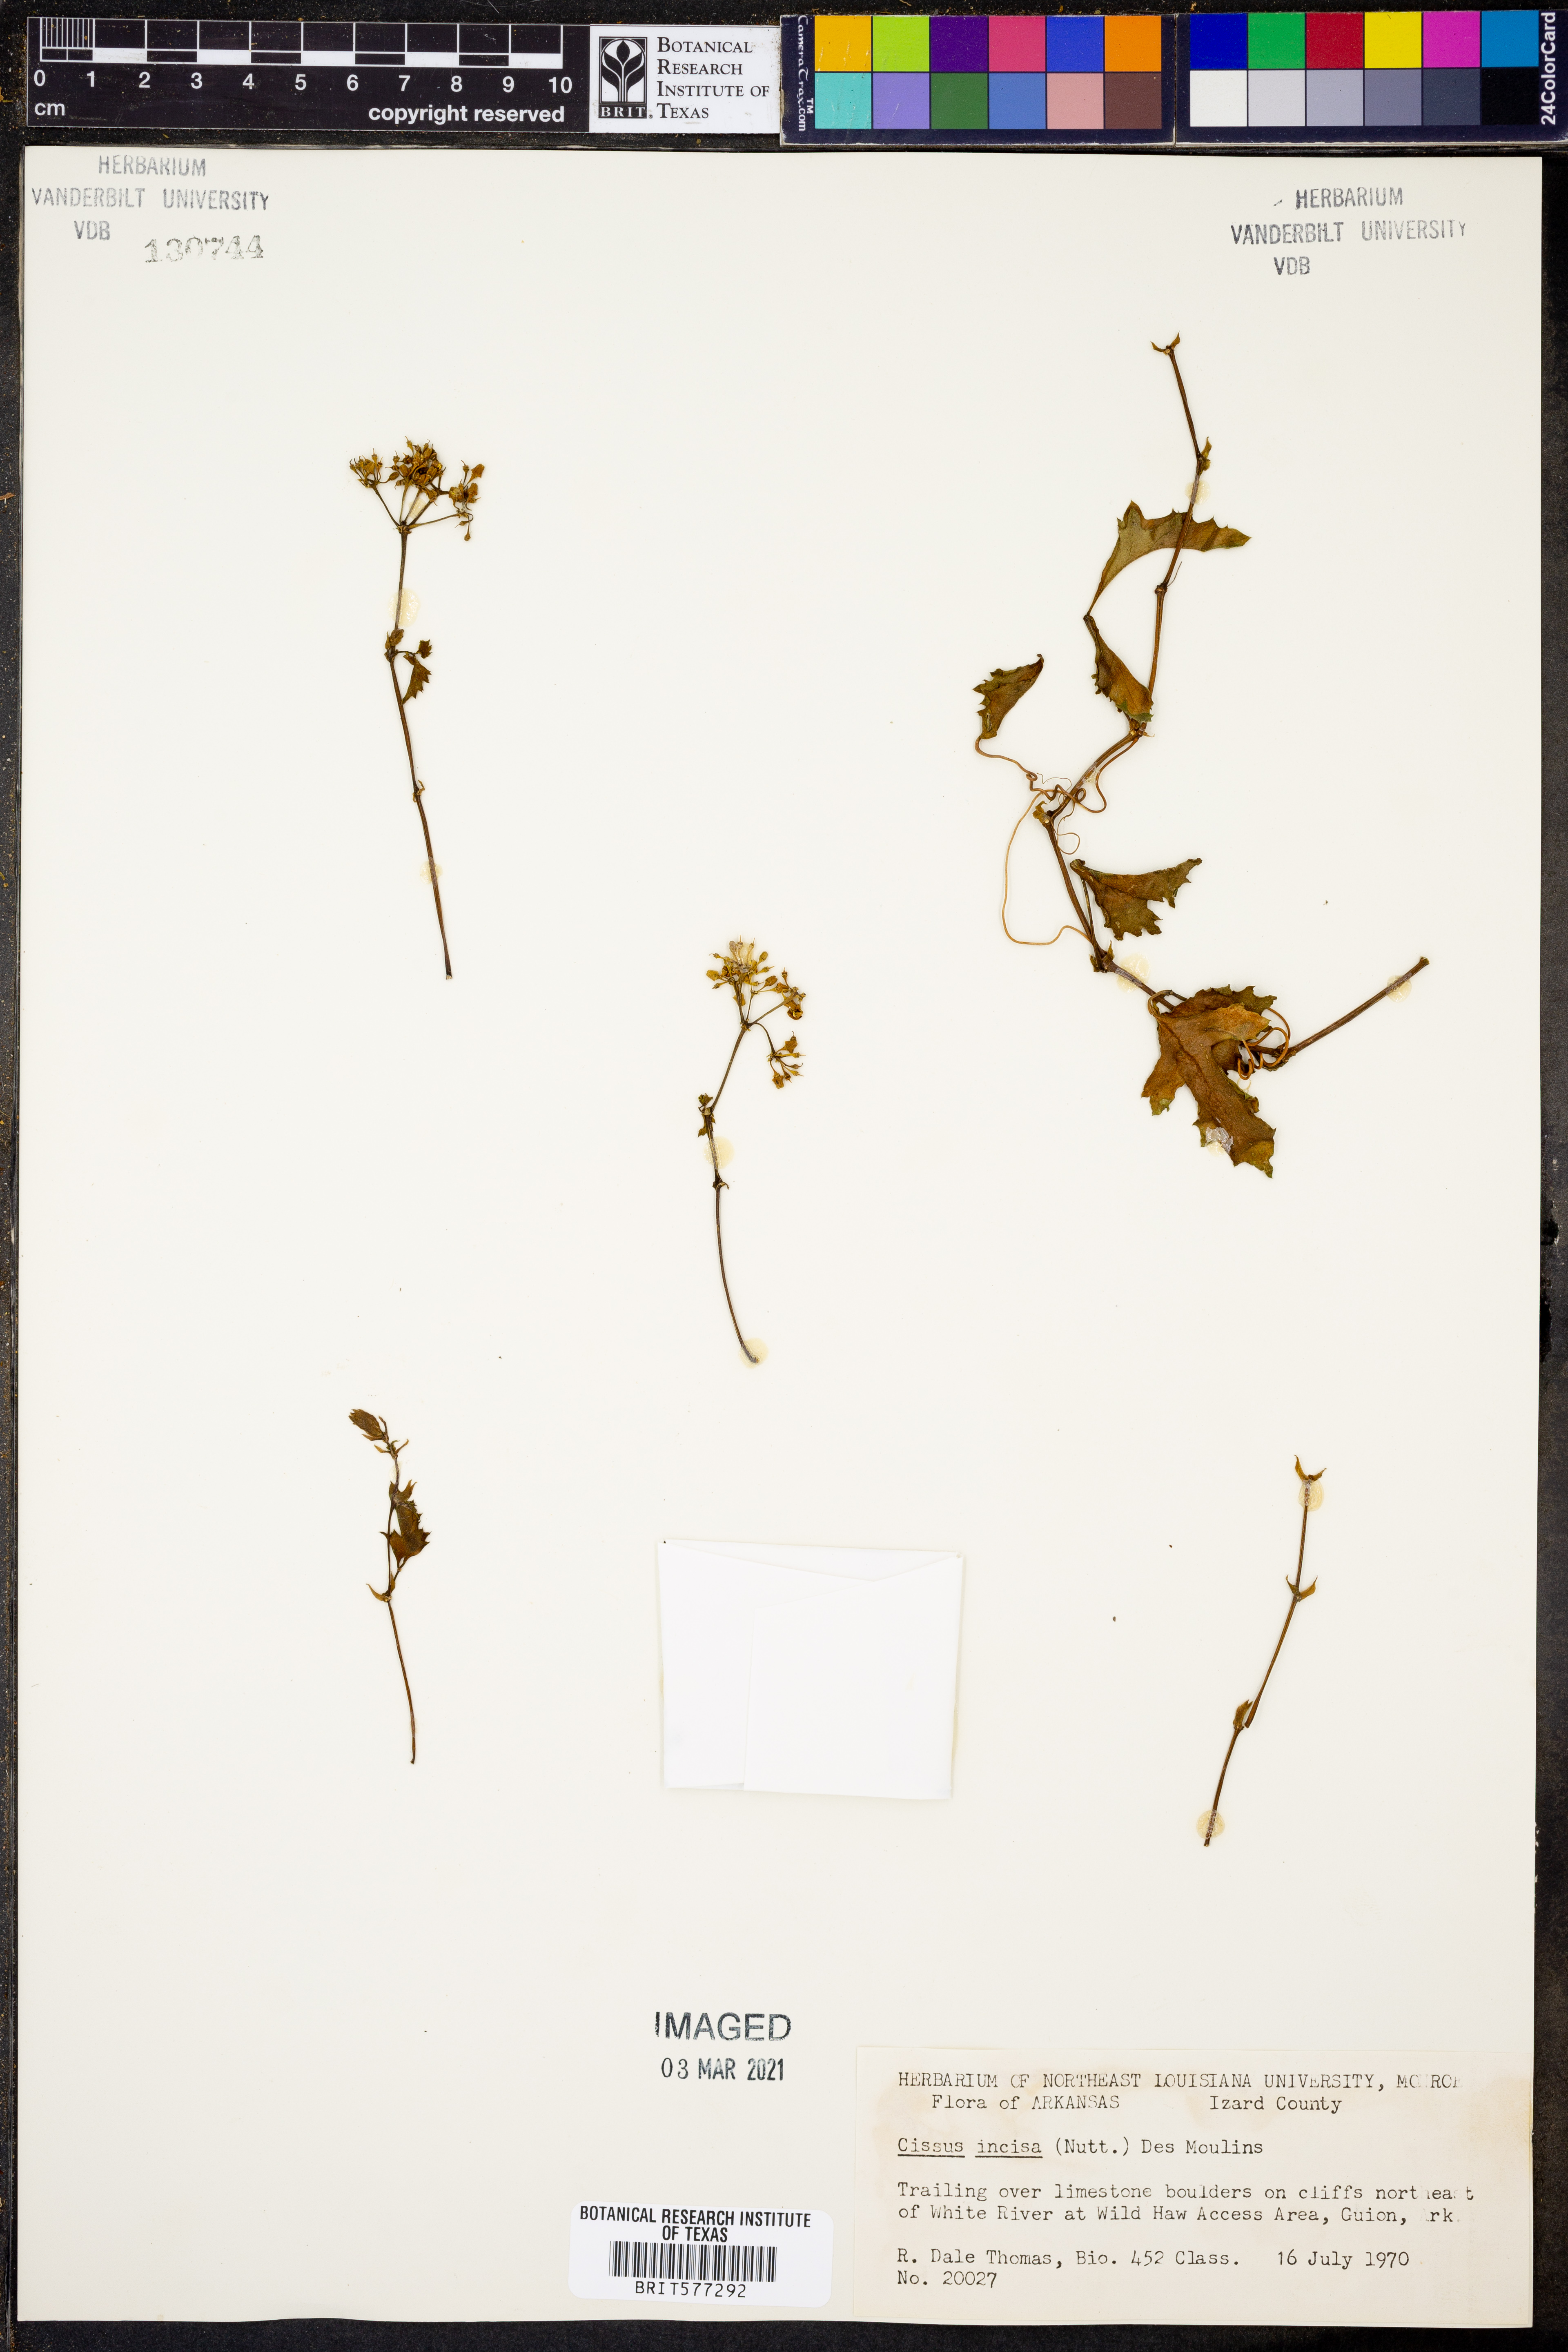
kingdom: Plantae
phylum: Tracheophyta
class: Magnoliopsida
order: Vitales
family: Vitaceae
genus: Cissus
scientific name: Cissus trifoliata
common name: Vine-sorrel
